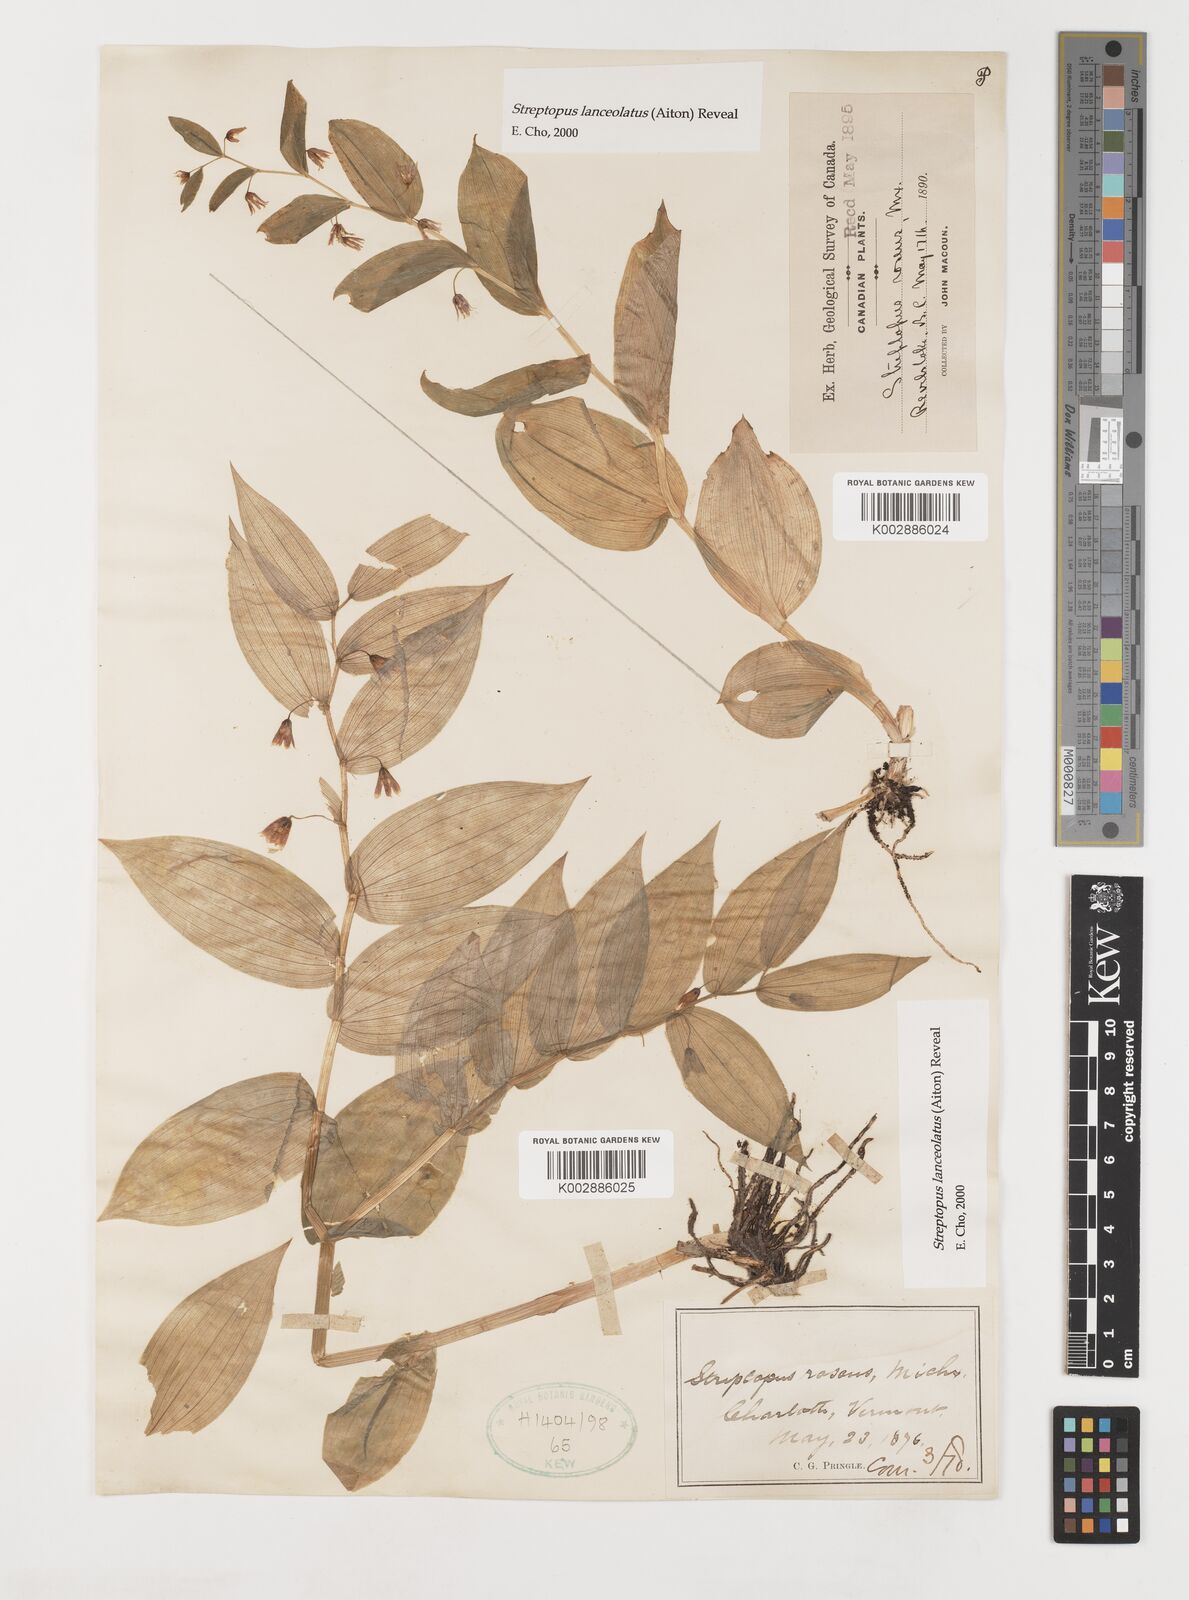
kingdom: Plantae
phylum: Tracheophyta
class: Liliopsida
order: Liliales
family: Liliaceae
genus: Streptopus
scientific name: Streptopus lanceolatus
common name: Rose mandarin
